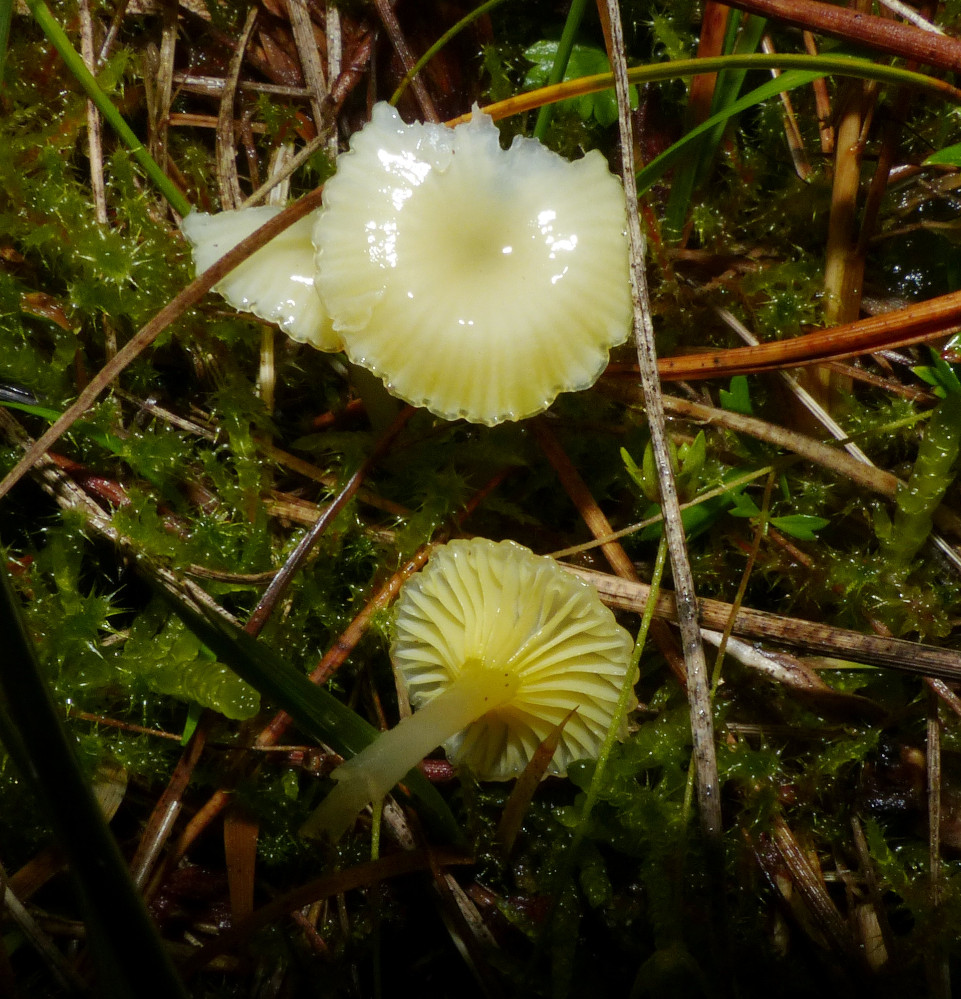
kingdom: Fungi
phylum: Basidiomycota
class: Agaricomycetes
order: Agaricales
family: Hygrophoraceae
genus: Gloioxanthomyces
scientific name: Gloioxanthomyces vitellinus
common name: kromgul vokshat
